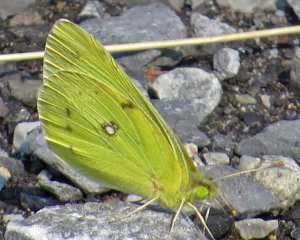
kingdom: Animalia
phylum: Arthropoda
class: Insecta
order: Lepidoptera
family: Pieridae
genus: Colias
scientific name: Colias philodice
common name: Clouded Sulphur
